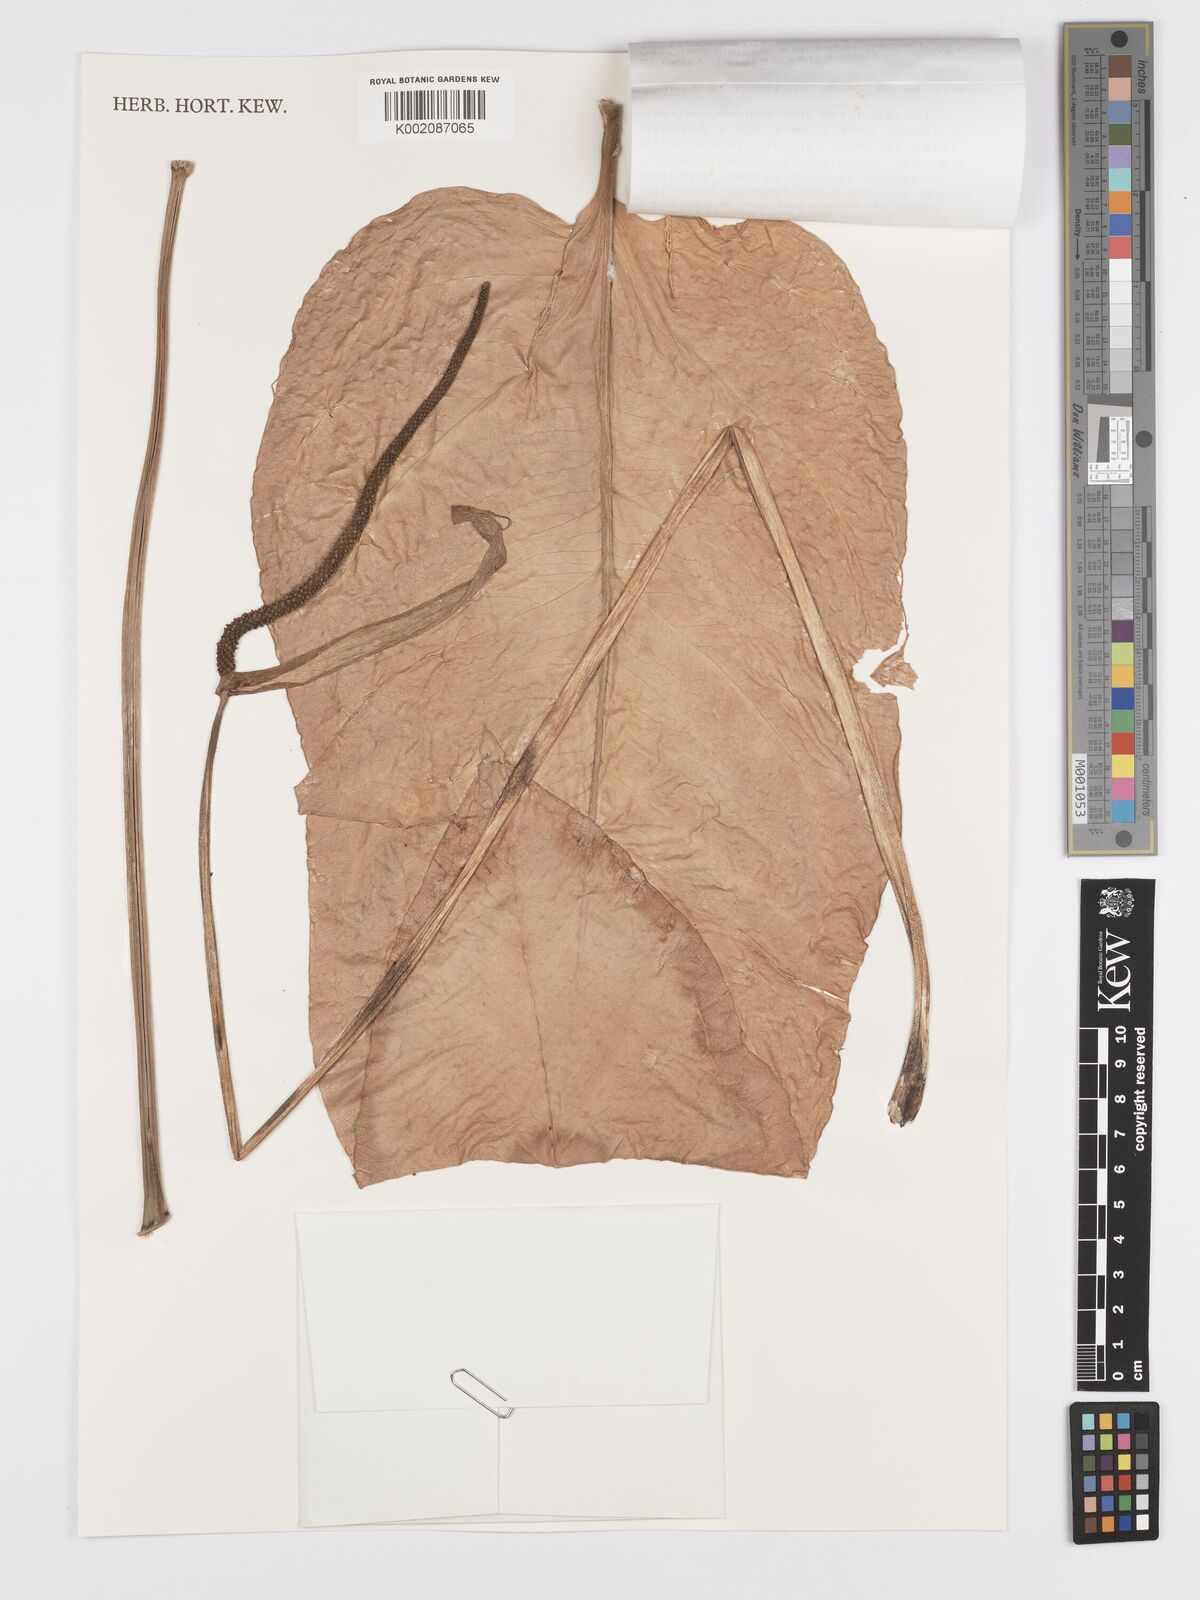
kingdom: Plantae
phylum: Tracheophyta
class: Liliopsida
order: Alismatales
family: Araceae
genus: Anthurium
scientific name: Anthurium subcordatum
